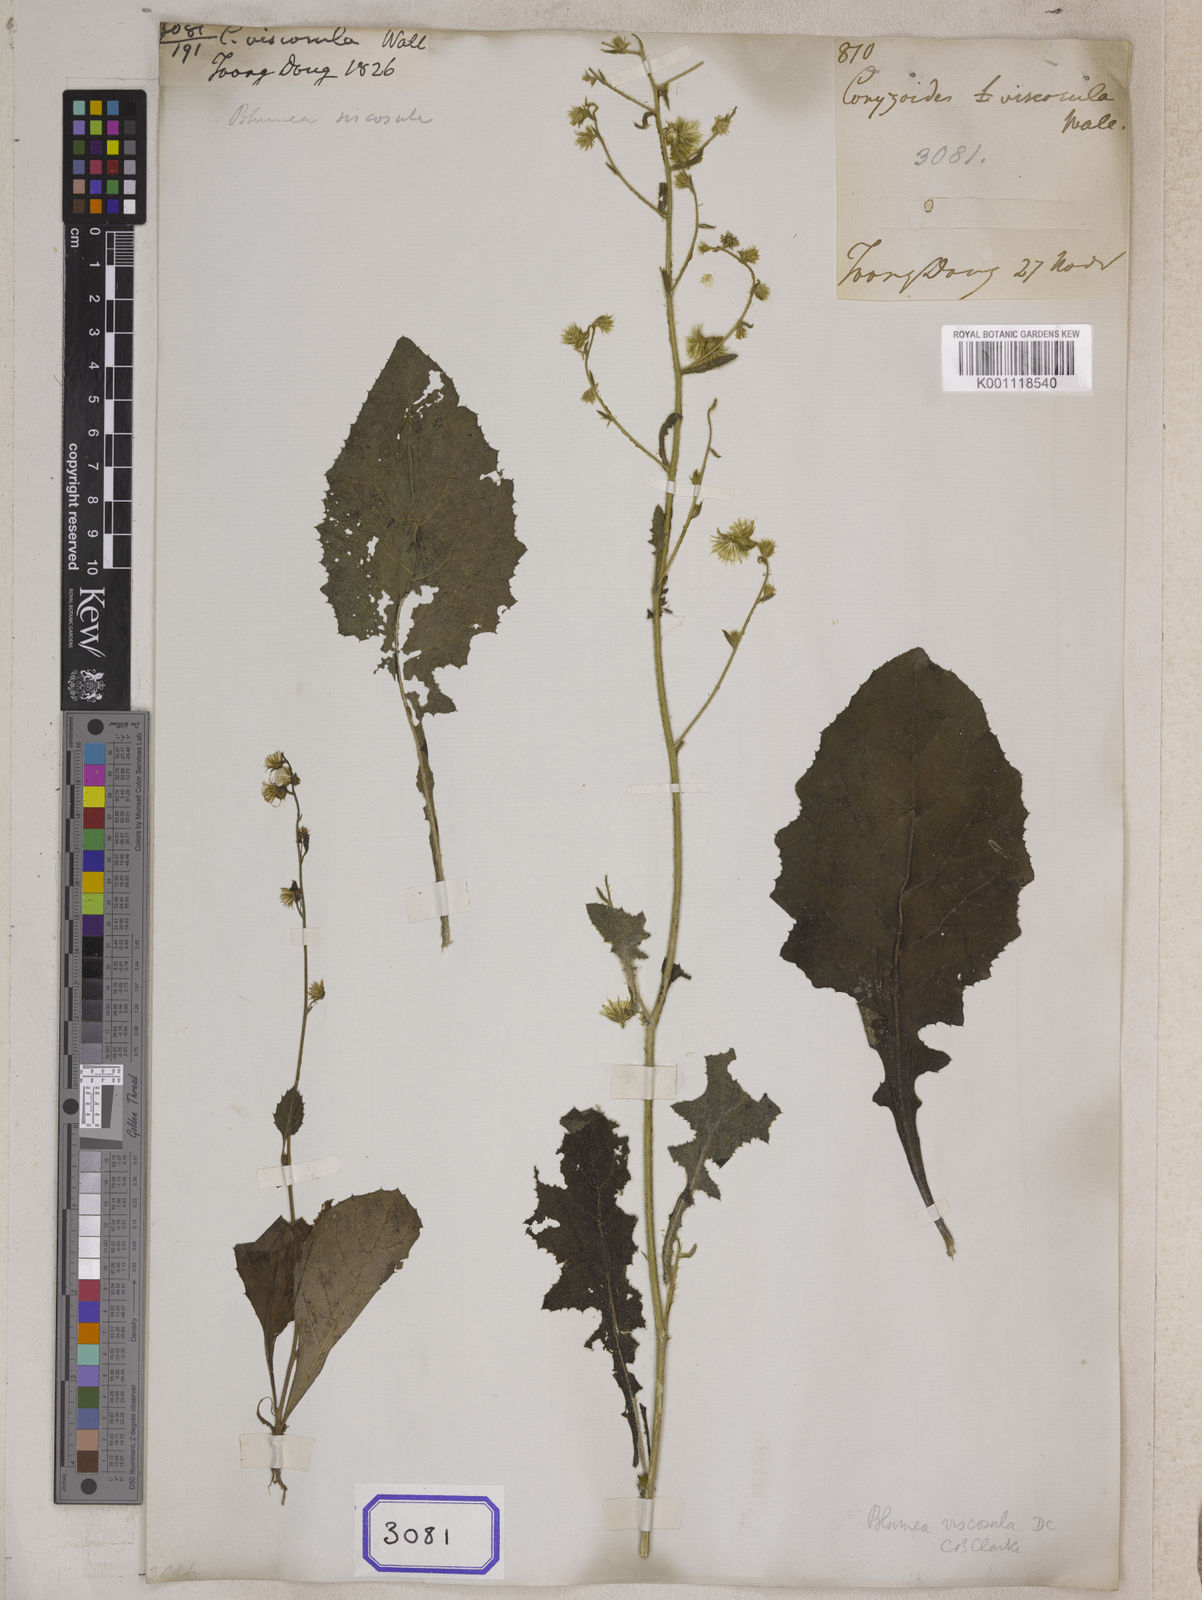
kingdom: Plantae
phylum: Tracheophyta
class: Magnoliopsida
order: Asterales
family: Asteraceae
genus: Conyza
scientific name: Conyza
